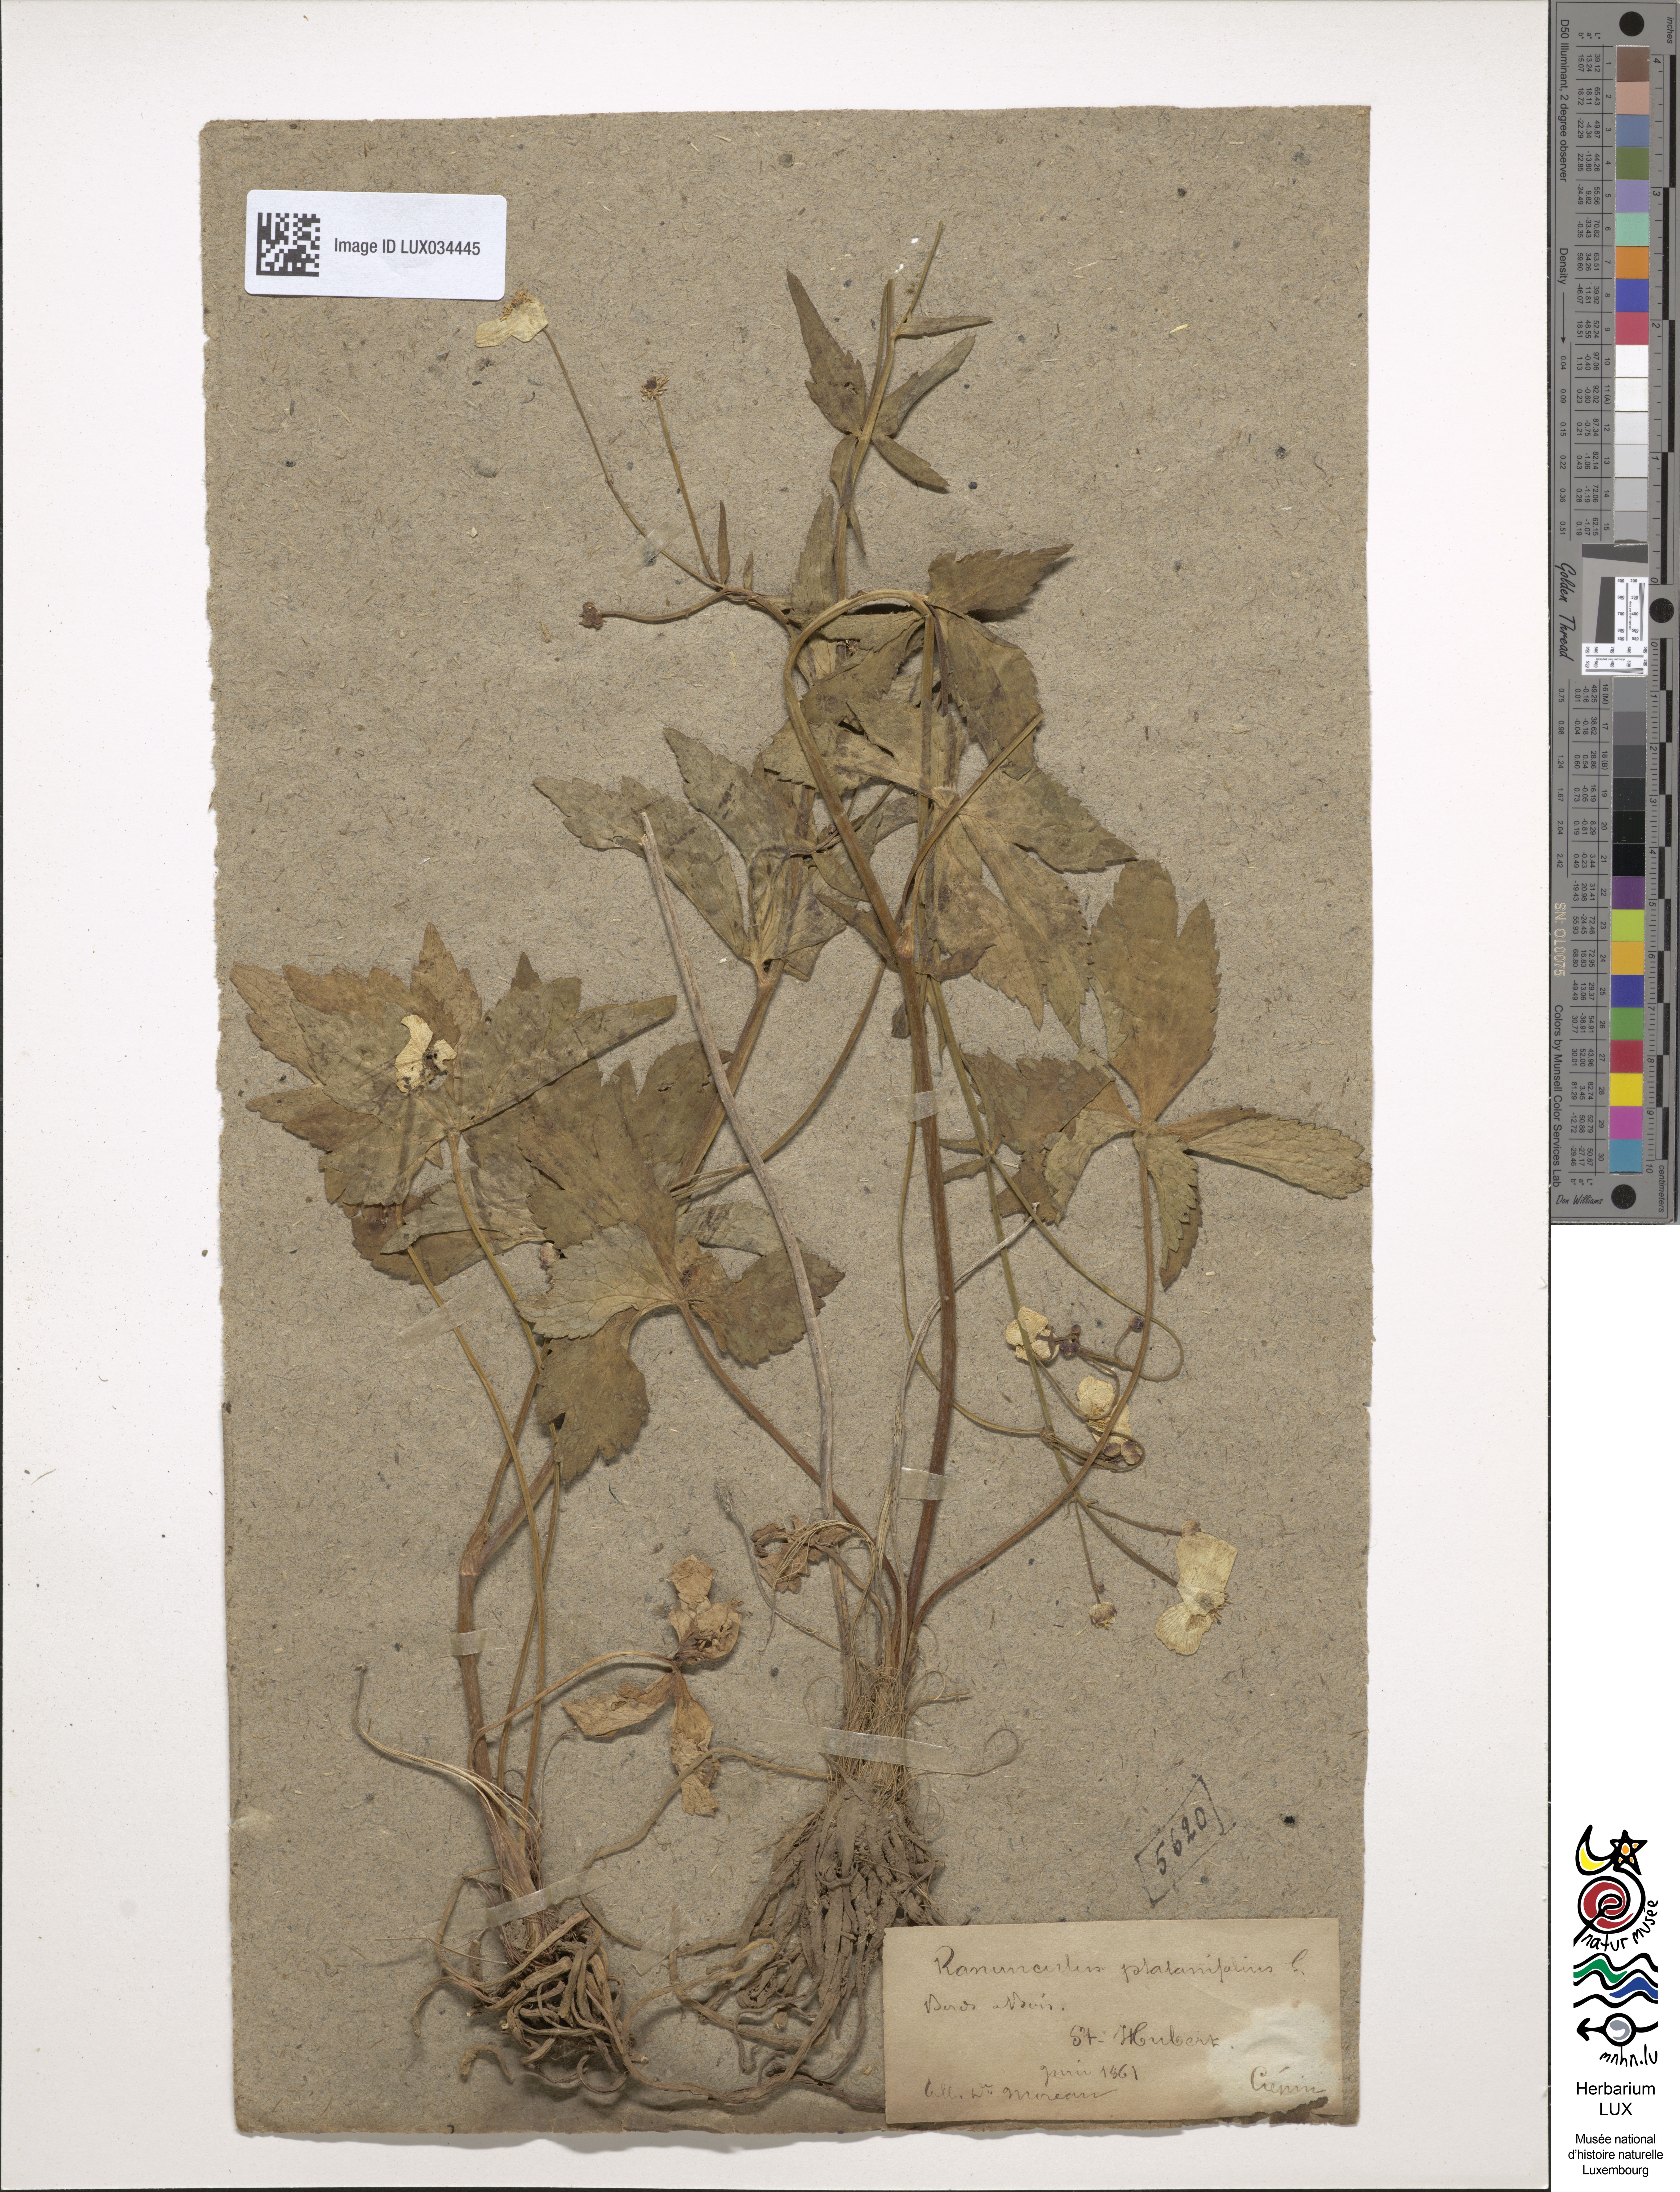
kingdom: Plantae
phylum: Tracheophyta
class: Magnoliopsida
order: Ranunculales
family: Ranunculaceae
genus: Ranunculus
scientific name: Ranunculus platanifolius
